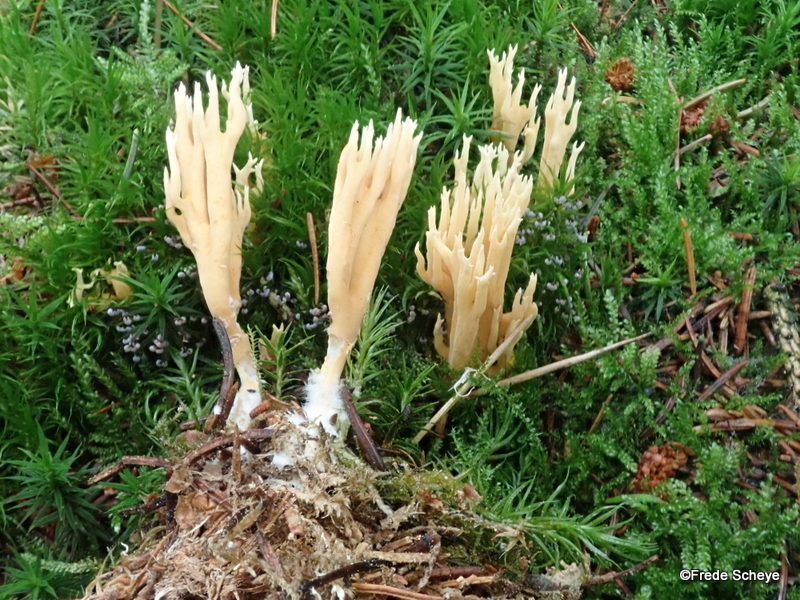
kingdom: Fungi
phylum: Basidiomycota
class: Agaricomycetes
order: Gomphales
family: Gomphaceae
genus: Phaeoclavulina
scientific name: Phaeoclavulina eumorpha
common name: gran-koralsvamp
